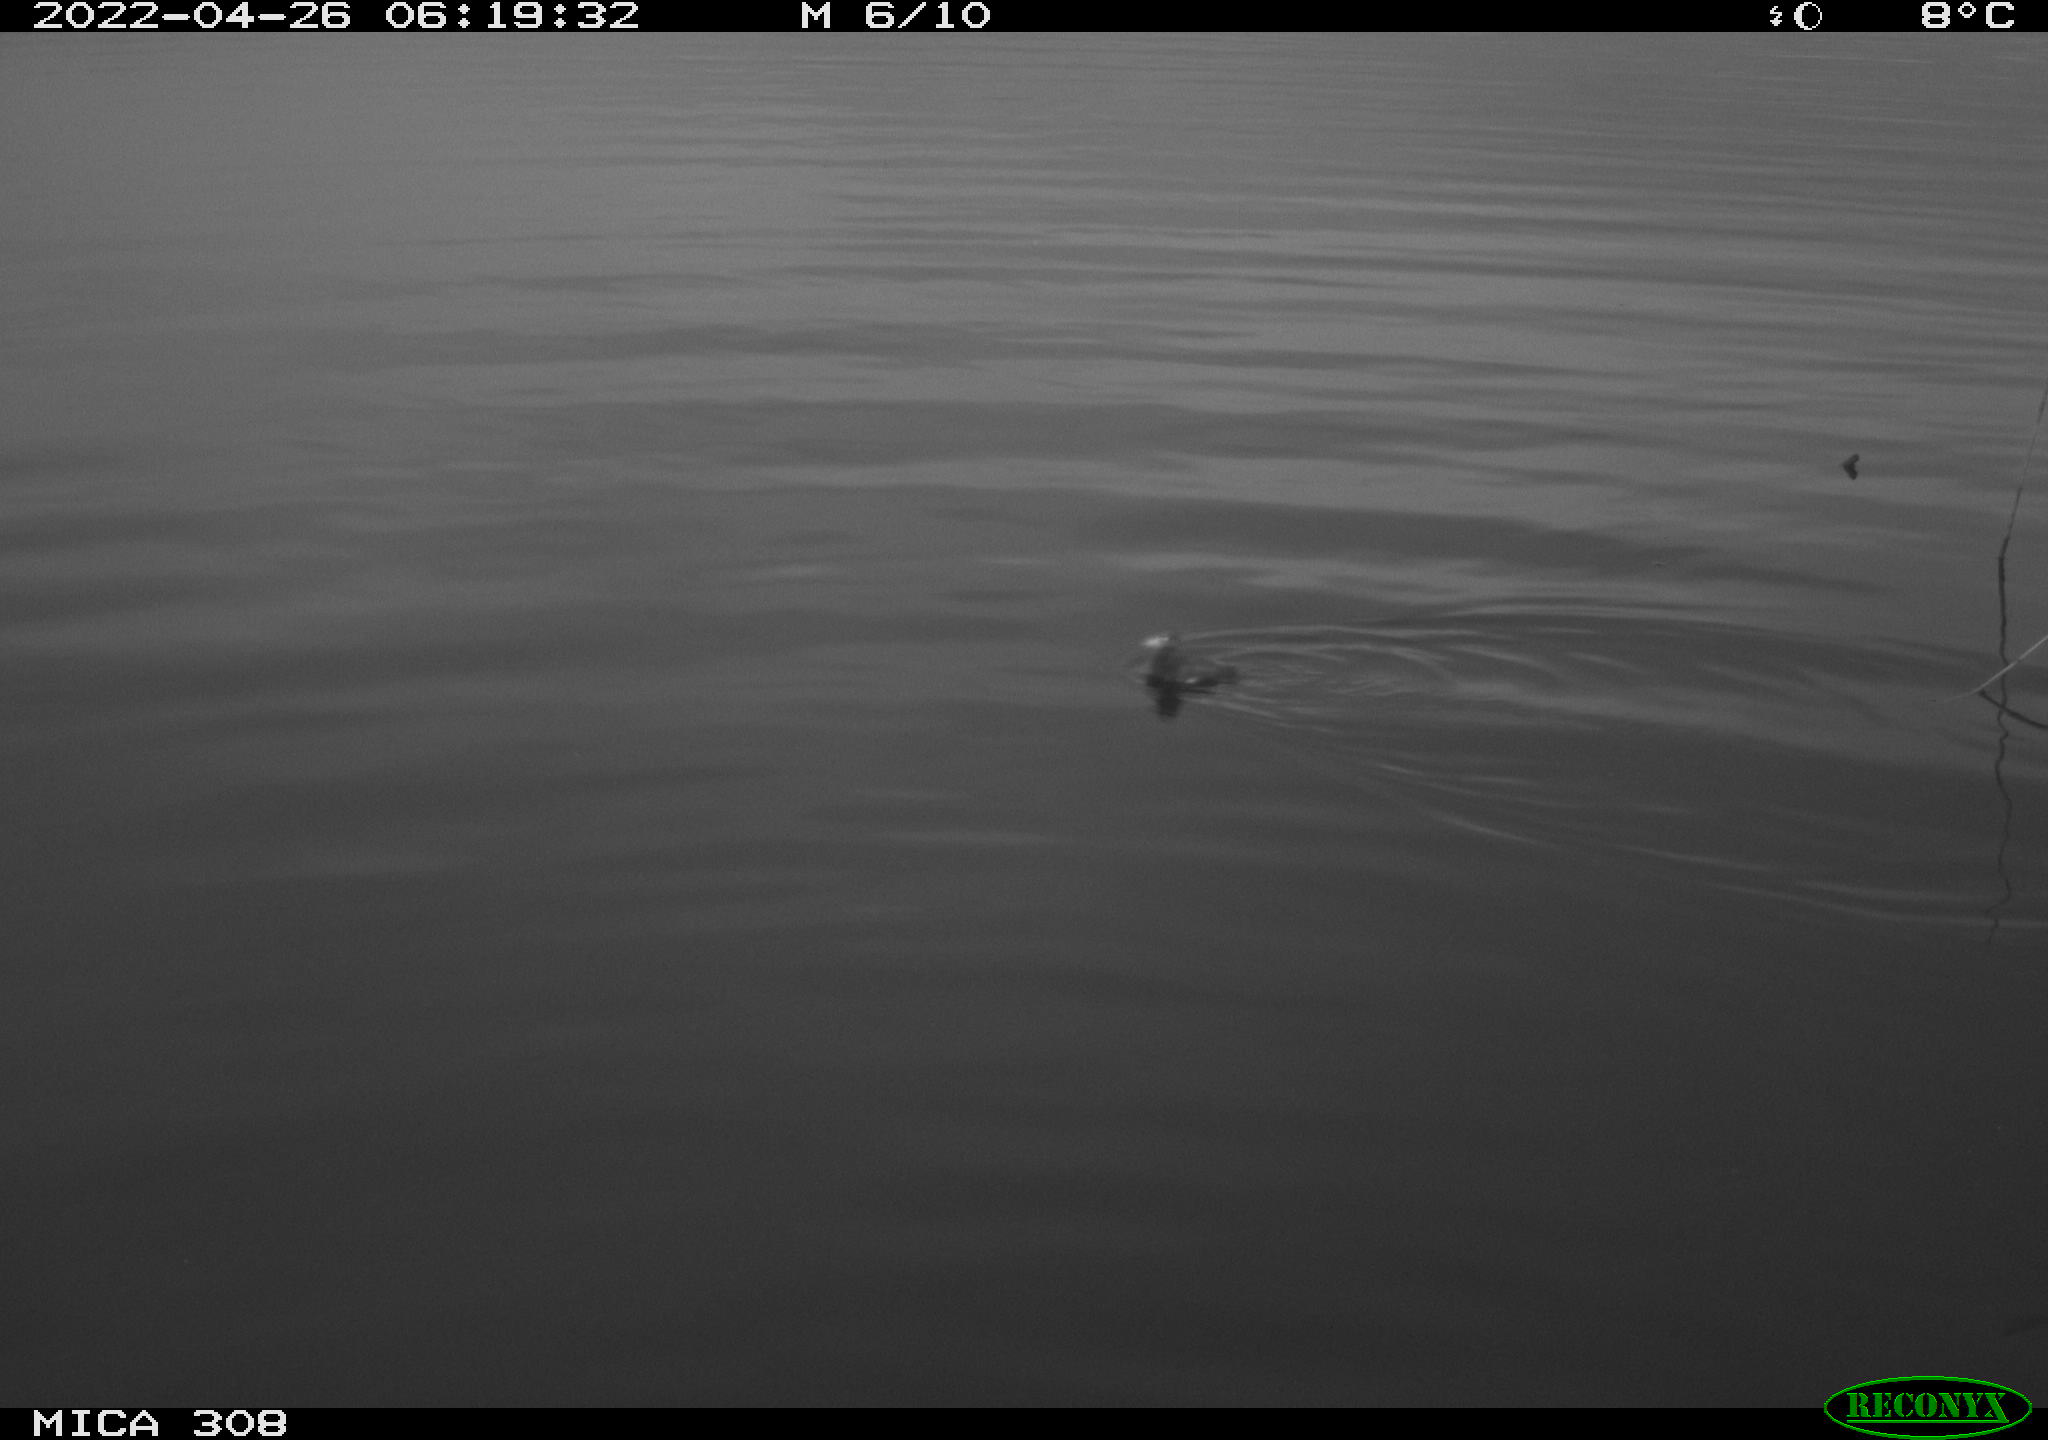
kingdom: Animalia
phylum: Chordata
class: Aves
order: Gruiformes
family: Rallidae
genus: Gallinula
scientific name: Gallinula chloropus
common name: Common moorhen
